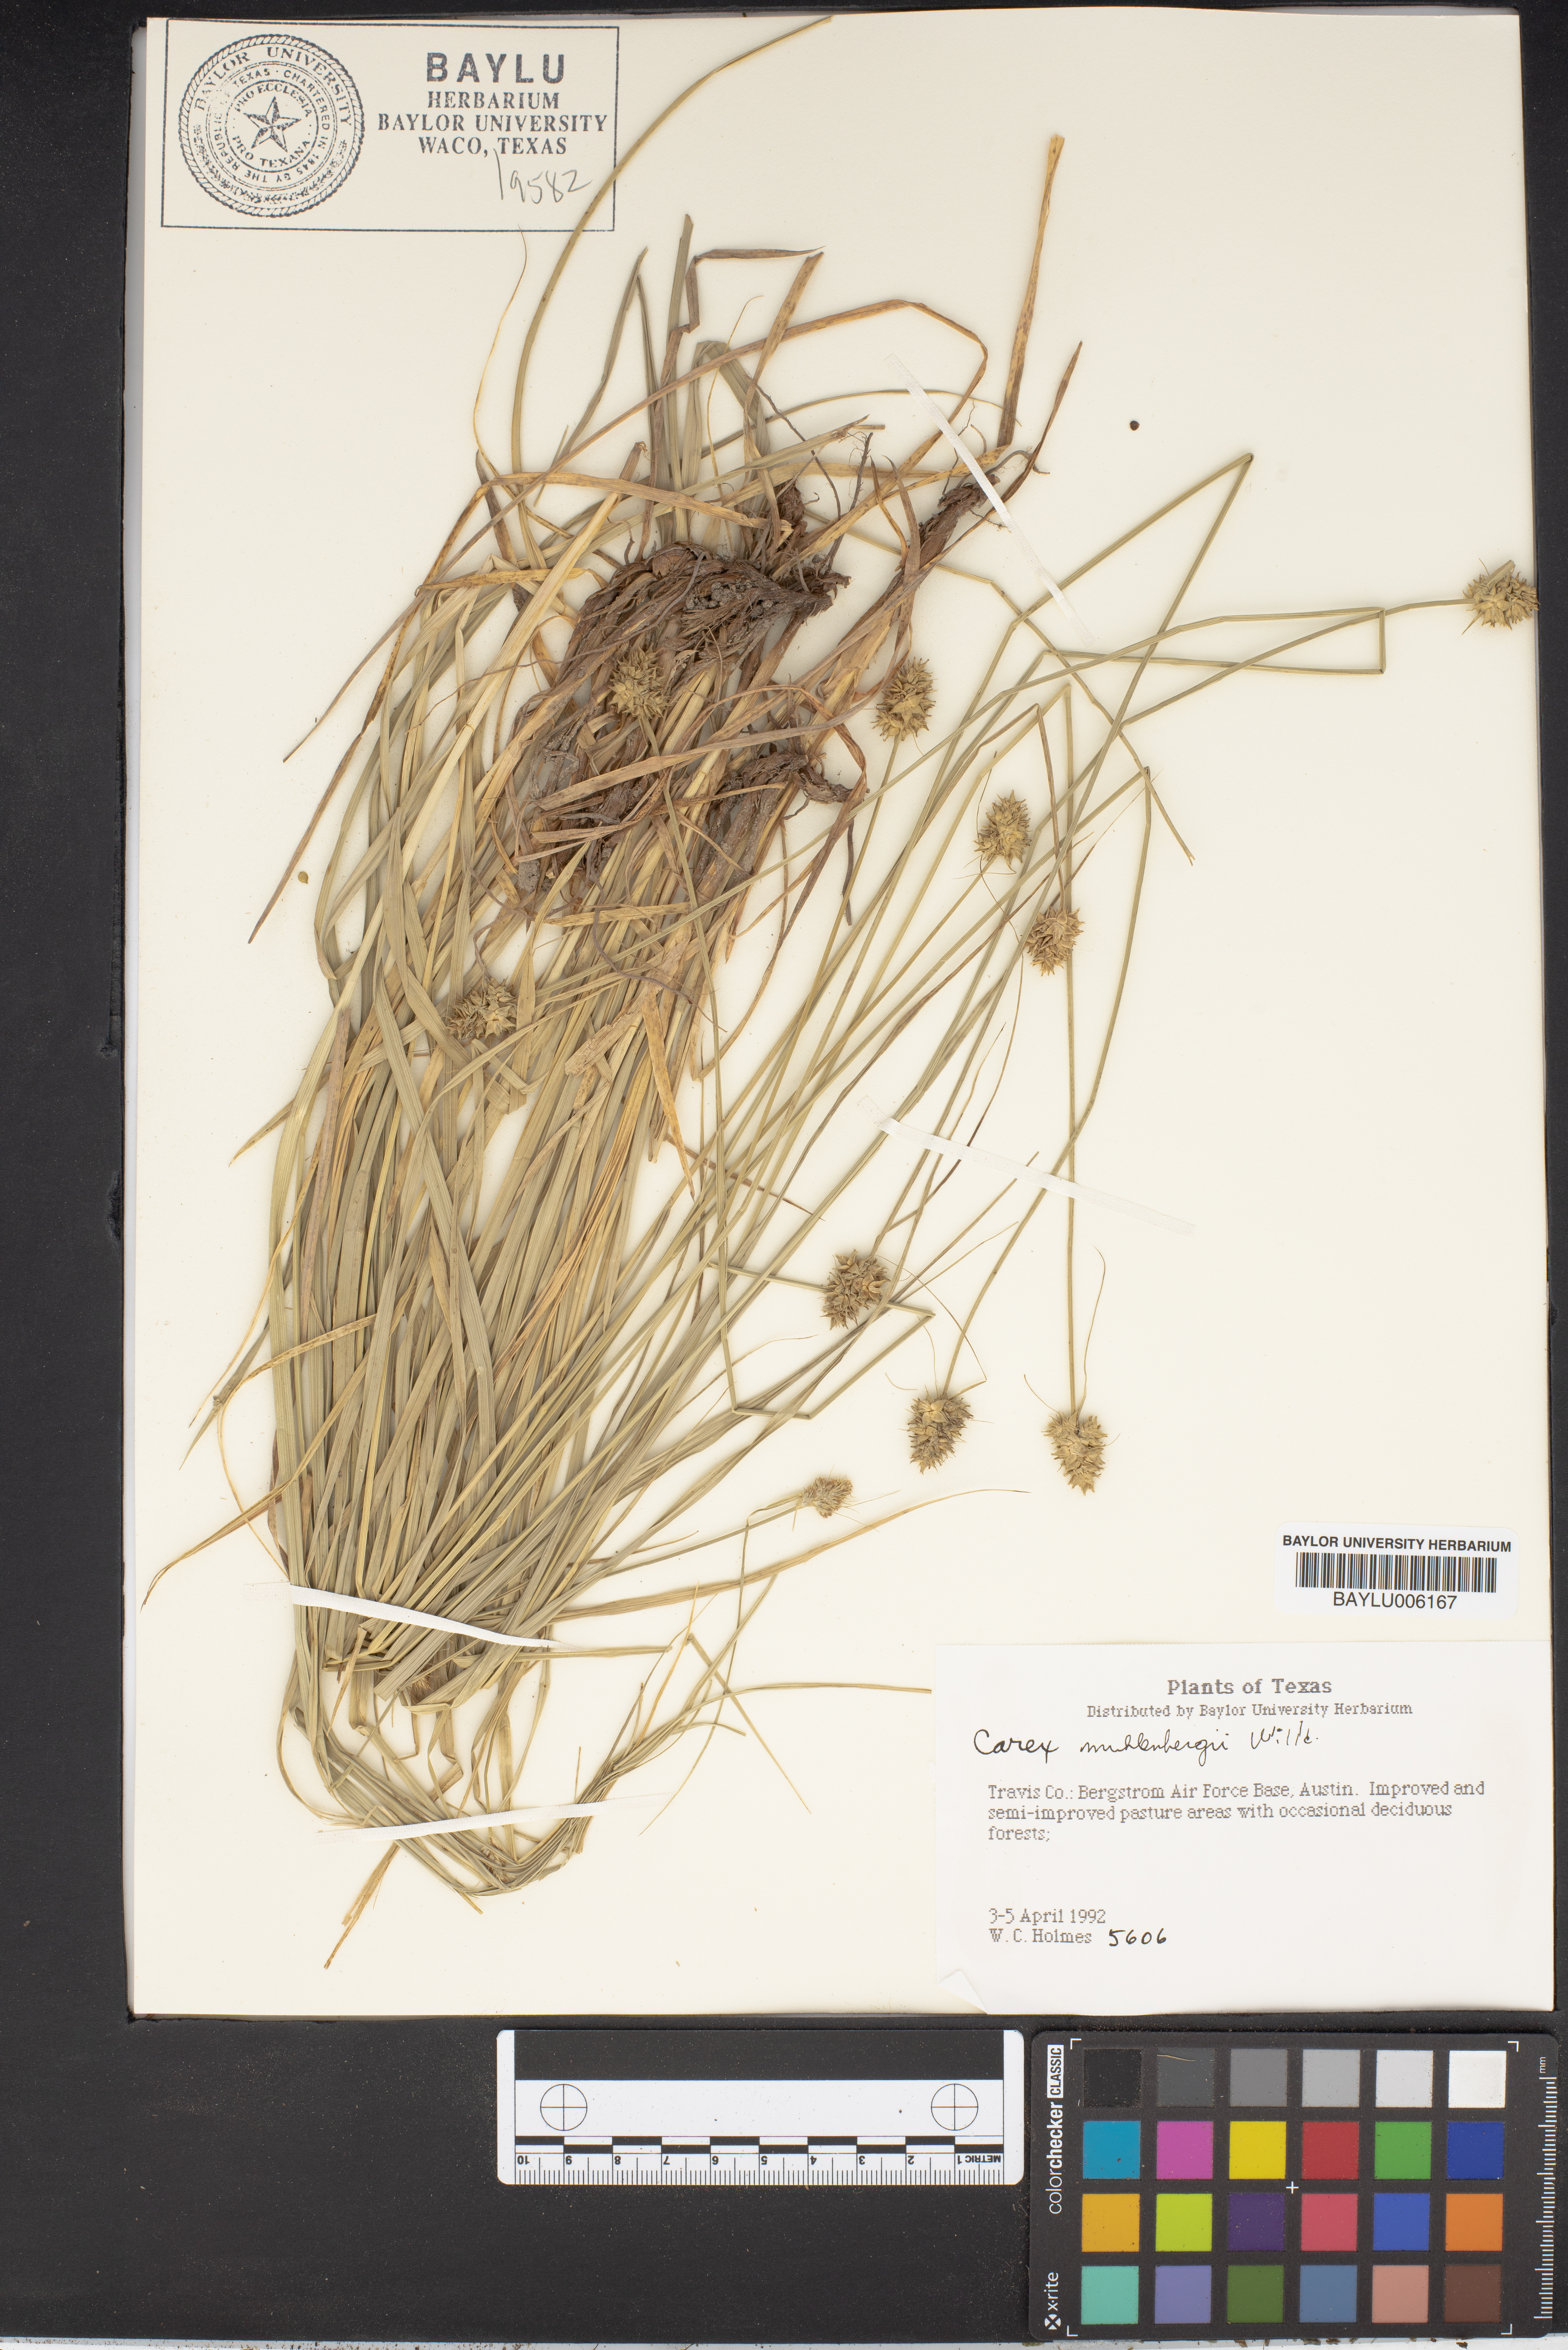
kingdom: Plantae
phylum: Tracheophyta
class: Liliopsida
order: Poales
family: Cyperaceae
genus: Carex
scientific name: Carex muehlenbergii
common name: Muhlenberg's bracted sedge
